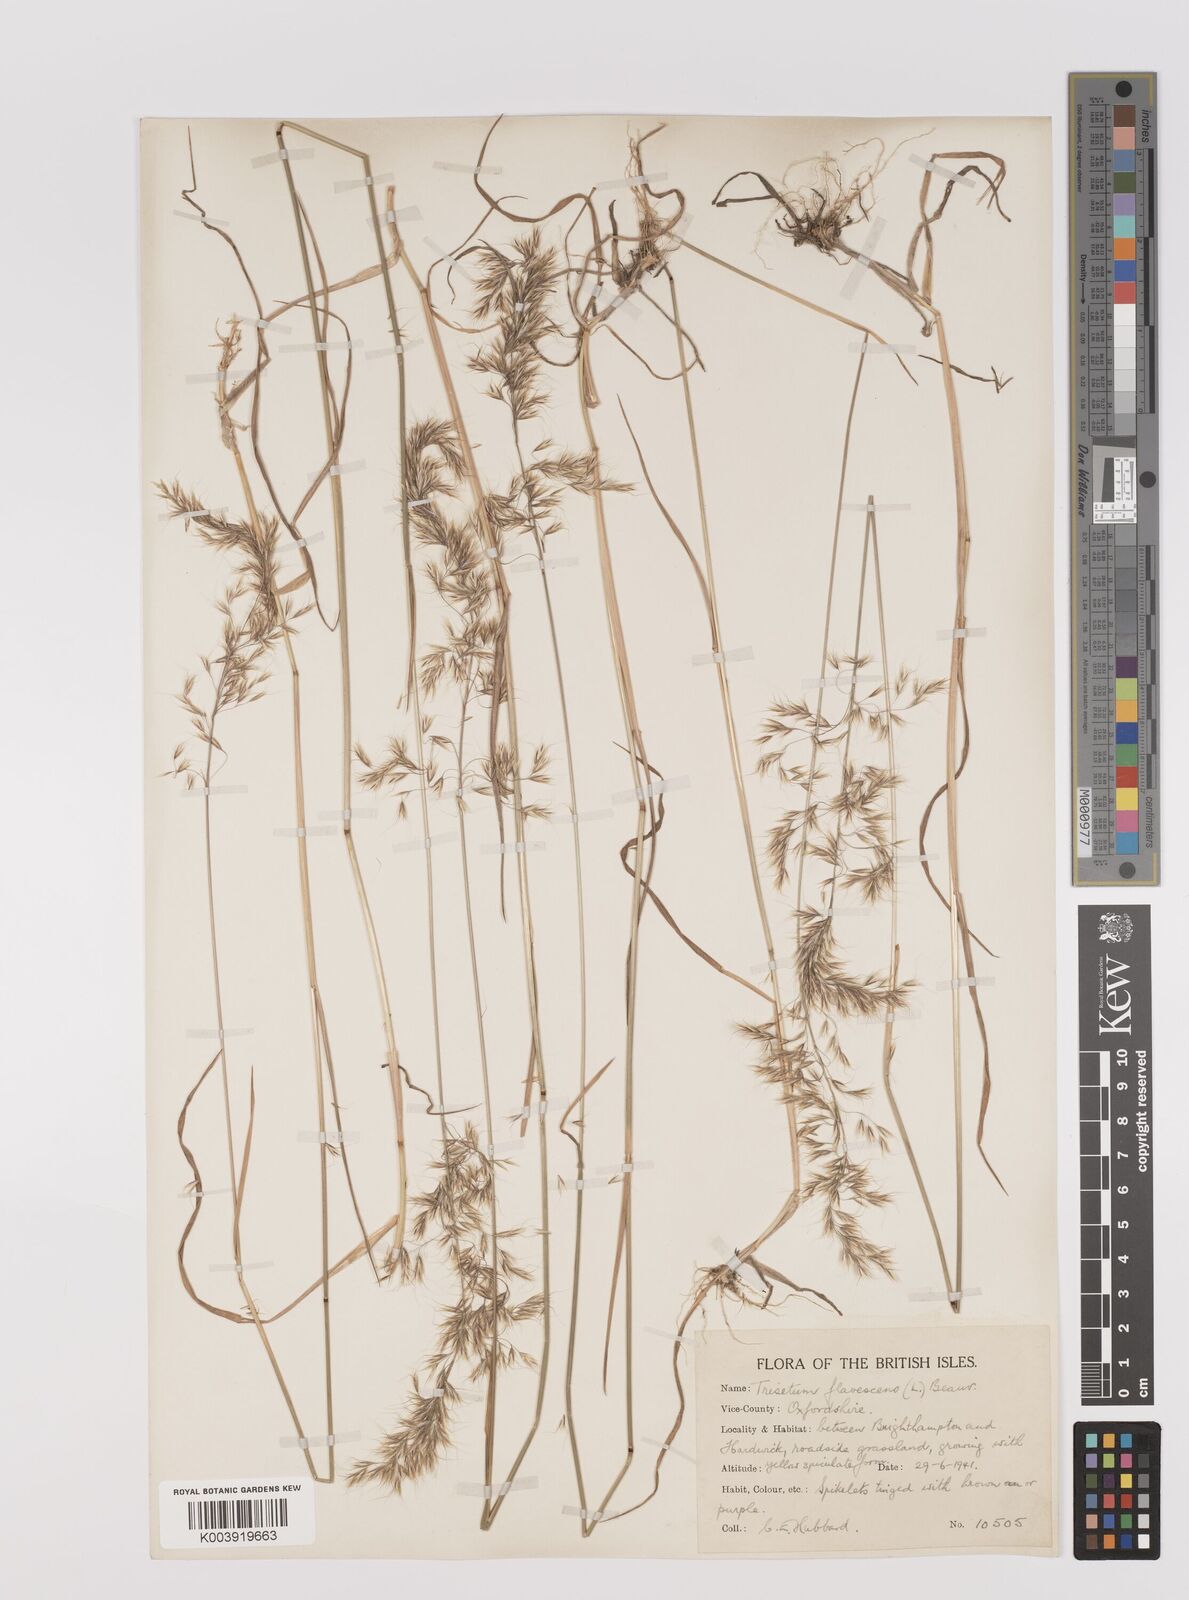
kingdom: Plantae
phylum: Tracheophyta
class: Liliopsida
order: Poales
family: Poaceae
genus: Trisetum
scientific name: Trisetum flavescens
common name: Yellow oat-grass
